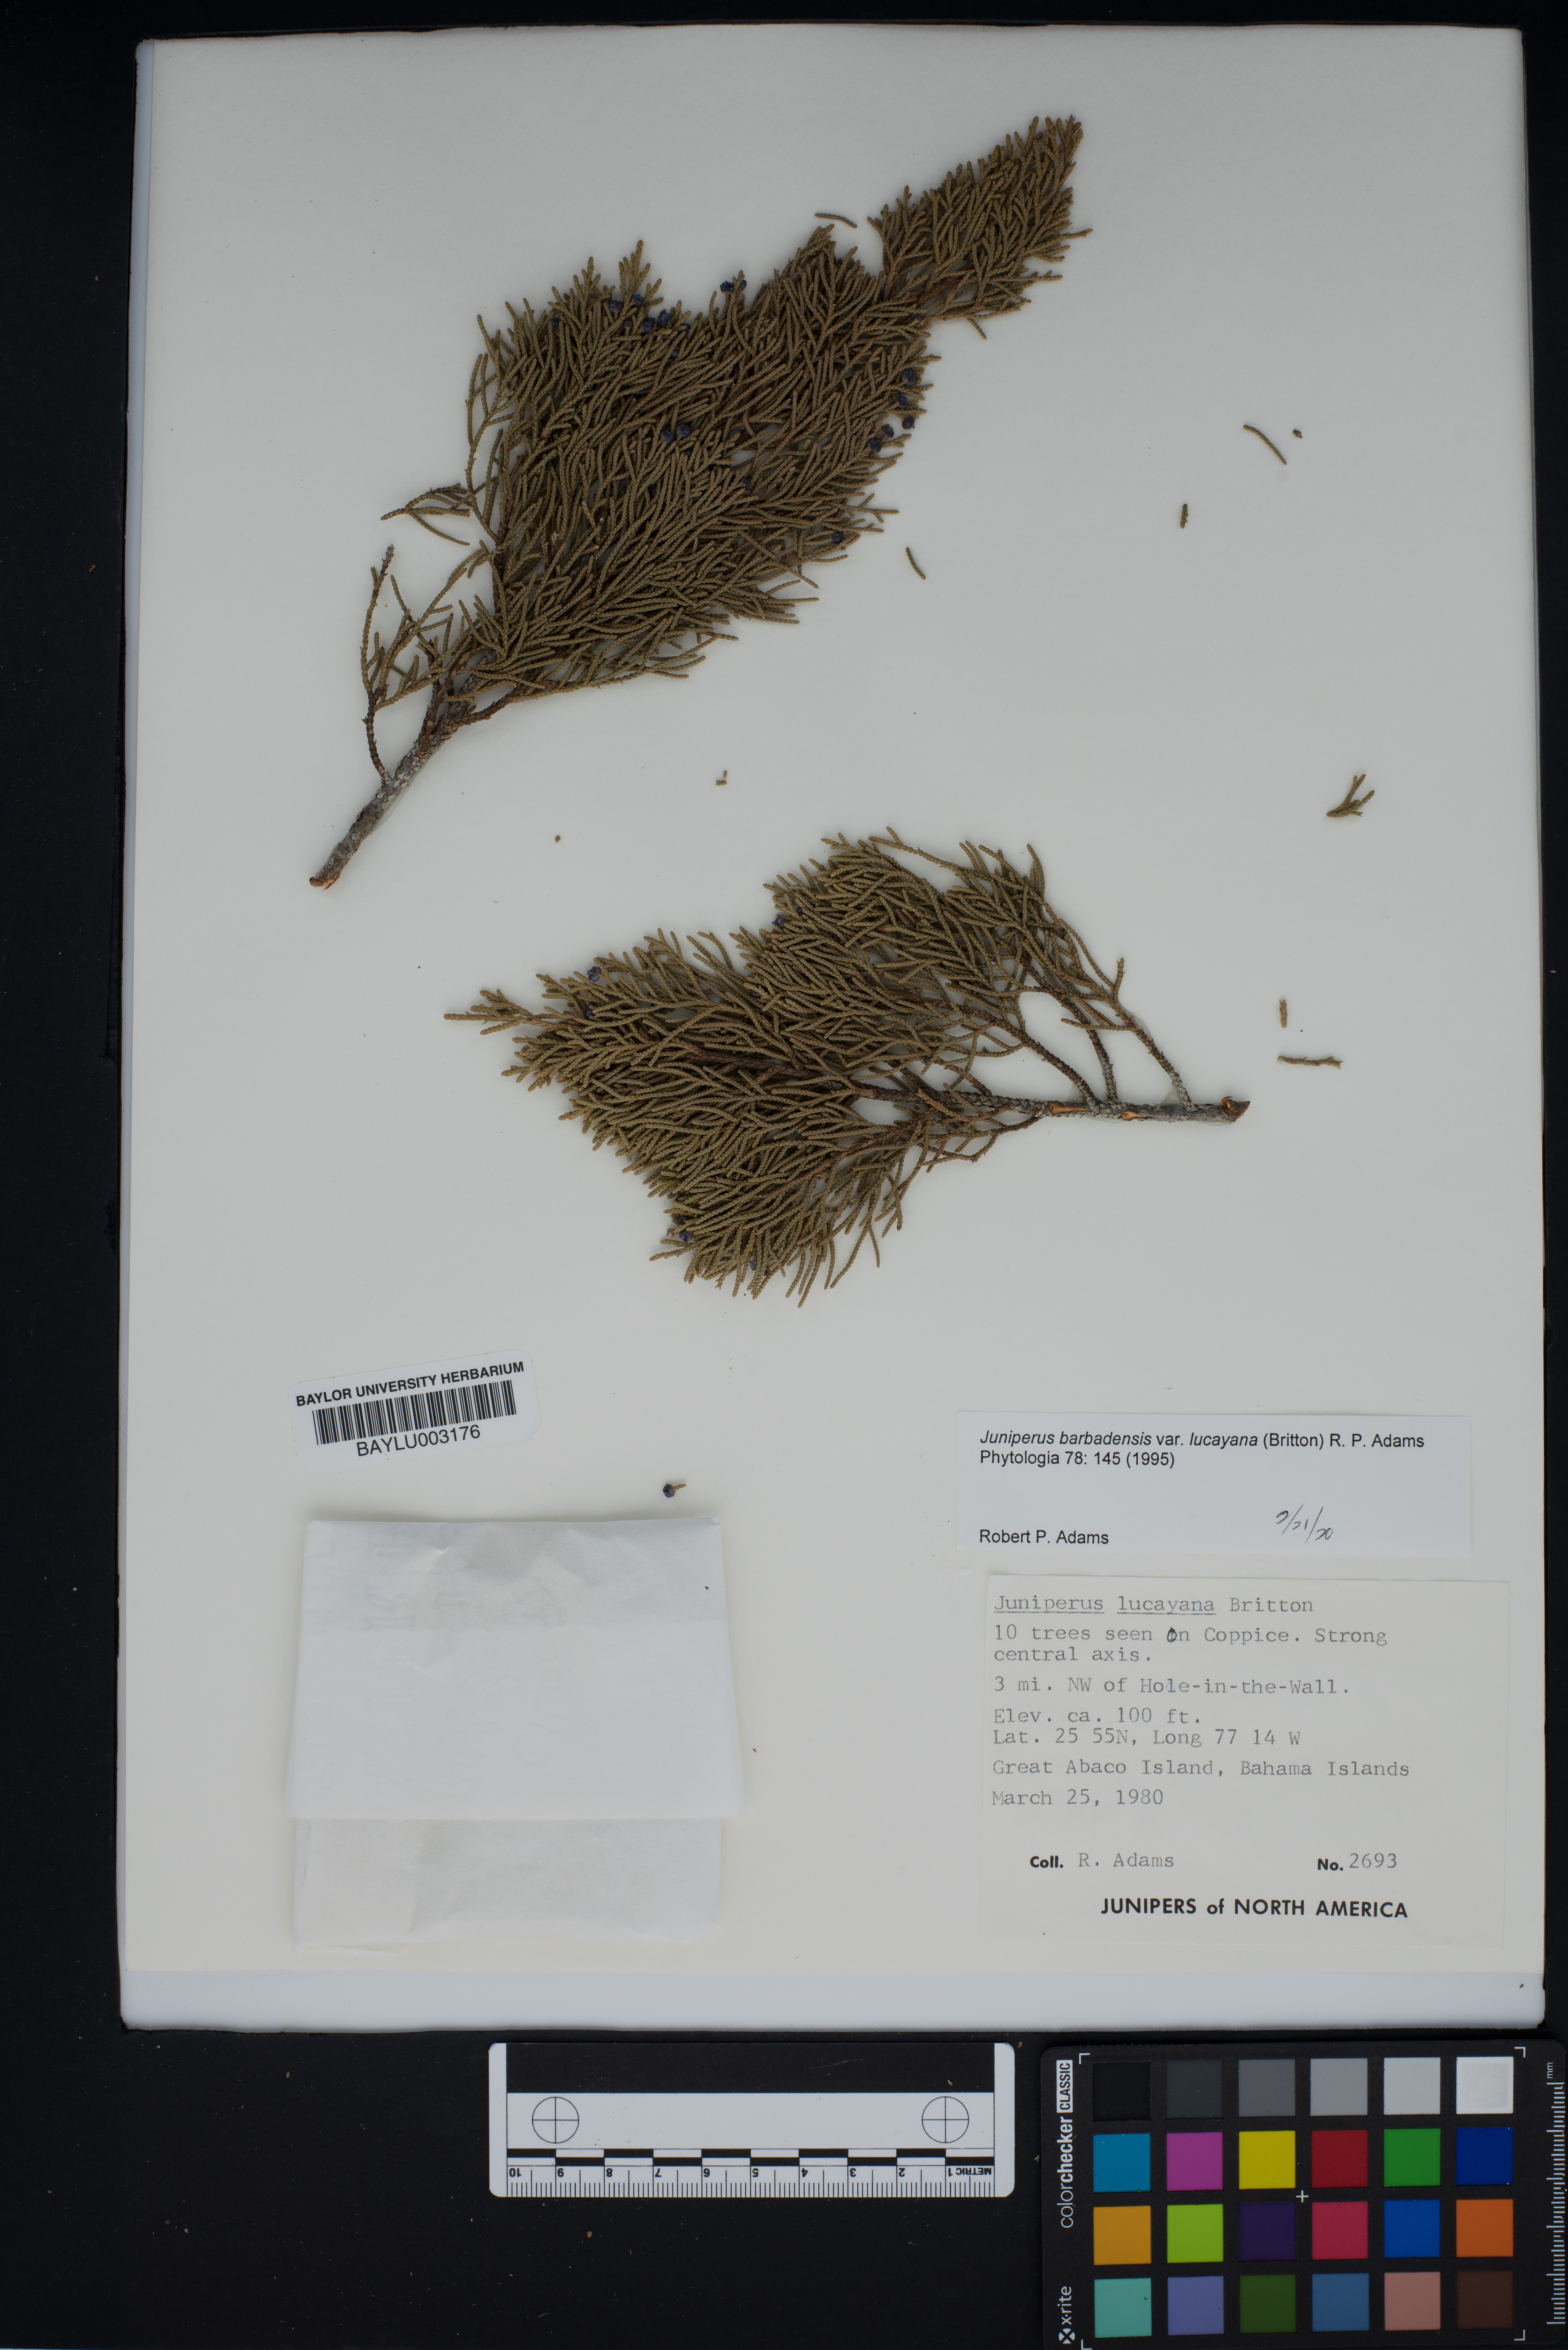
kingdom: Plantae
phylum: Tracheophyta
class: Pinopsida
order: Pinales
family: Cupressaceae
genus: Juniperus
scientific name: Juniperus barbadensis
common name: West indies juniper
